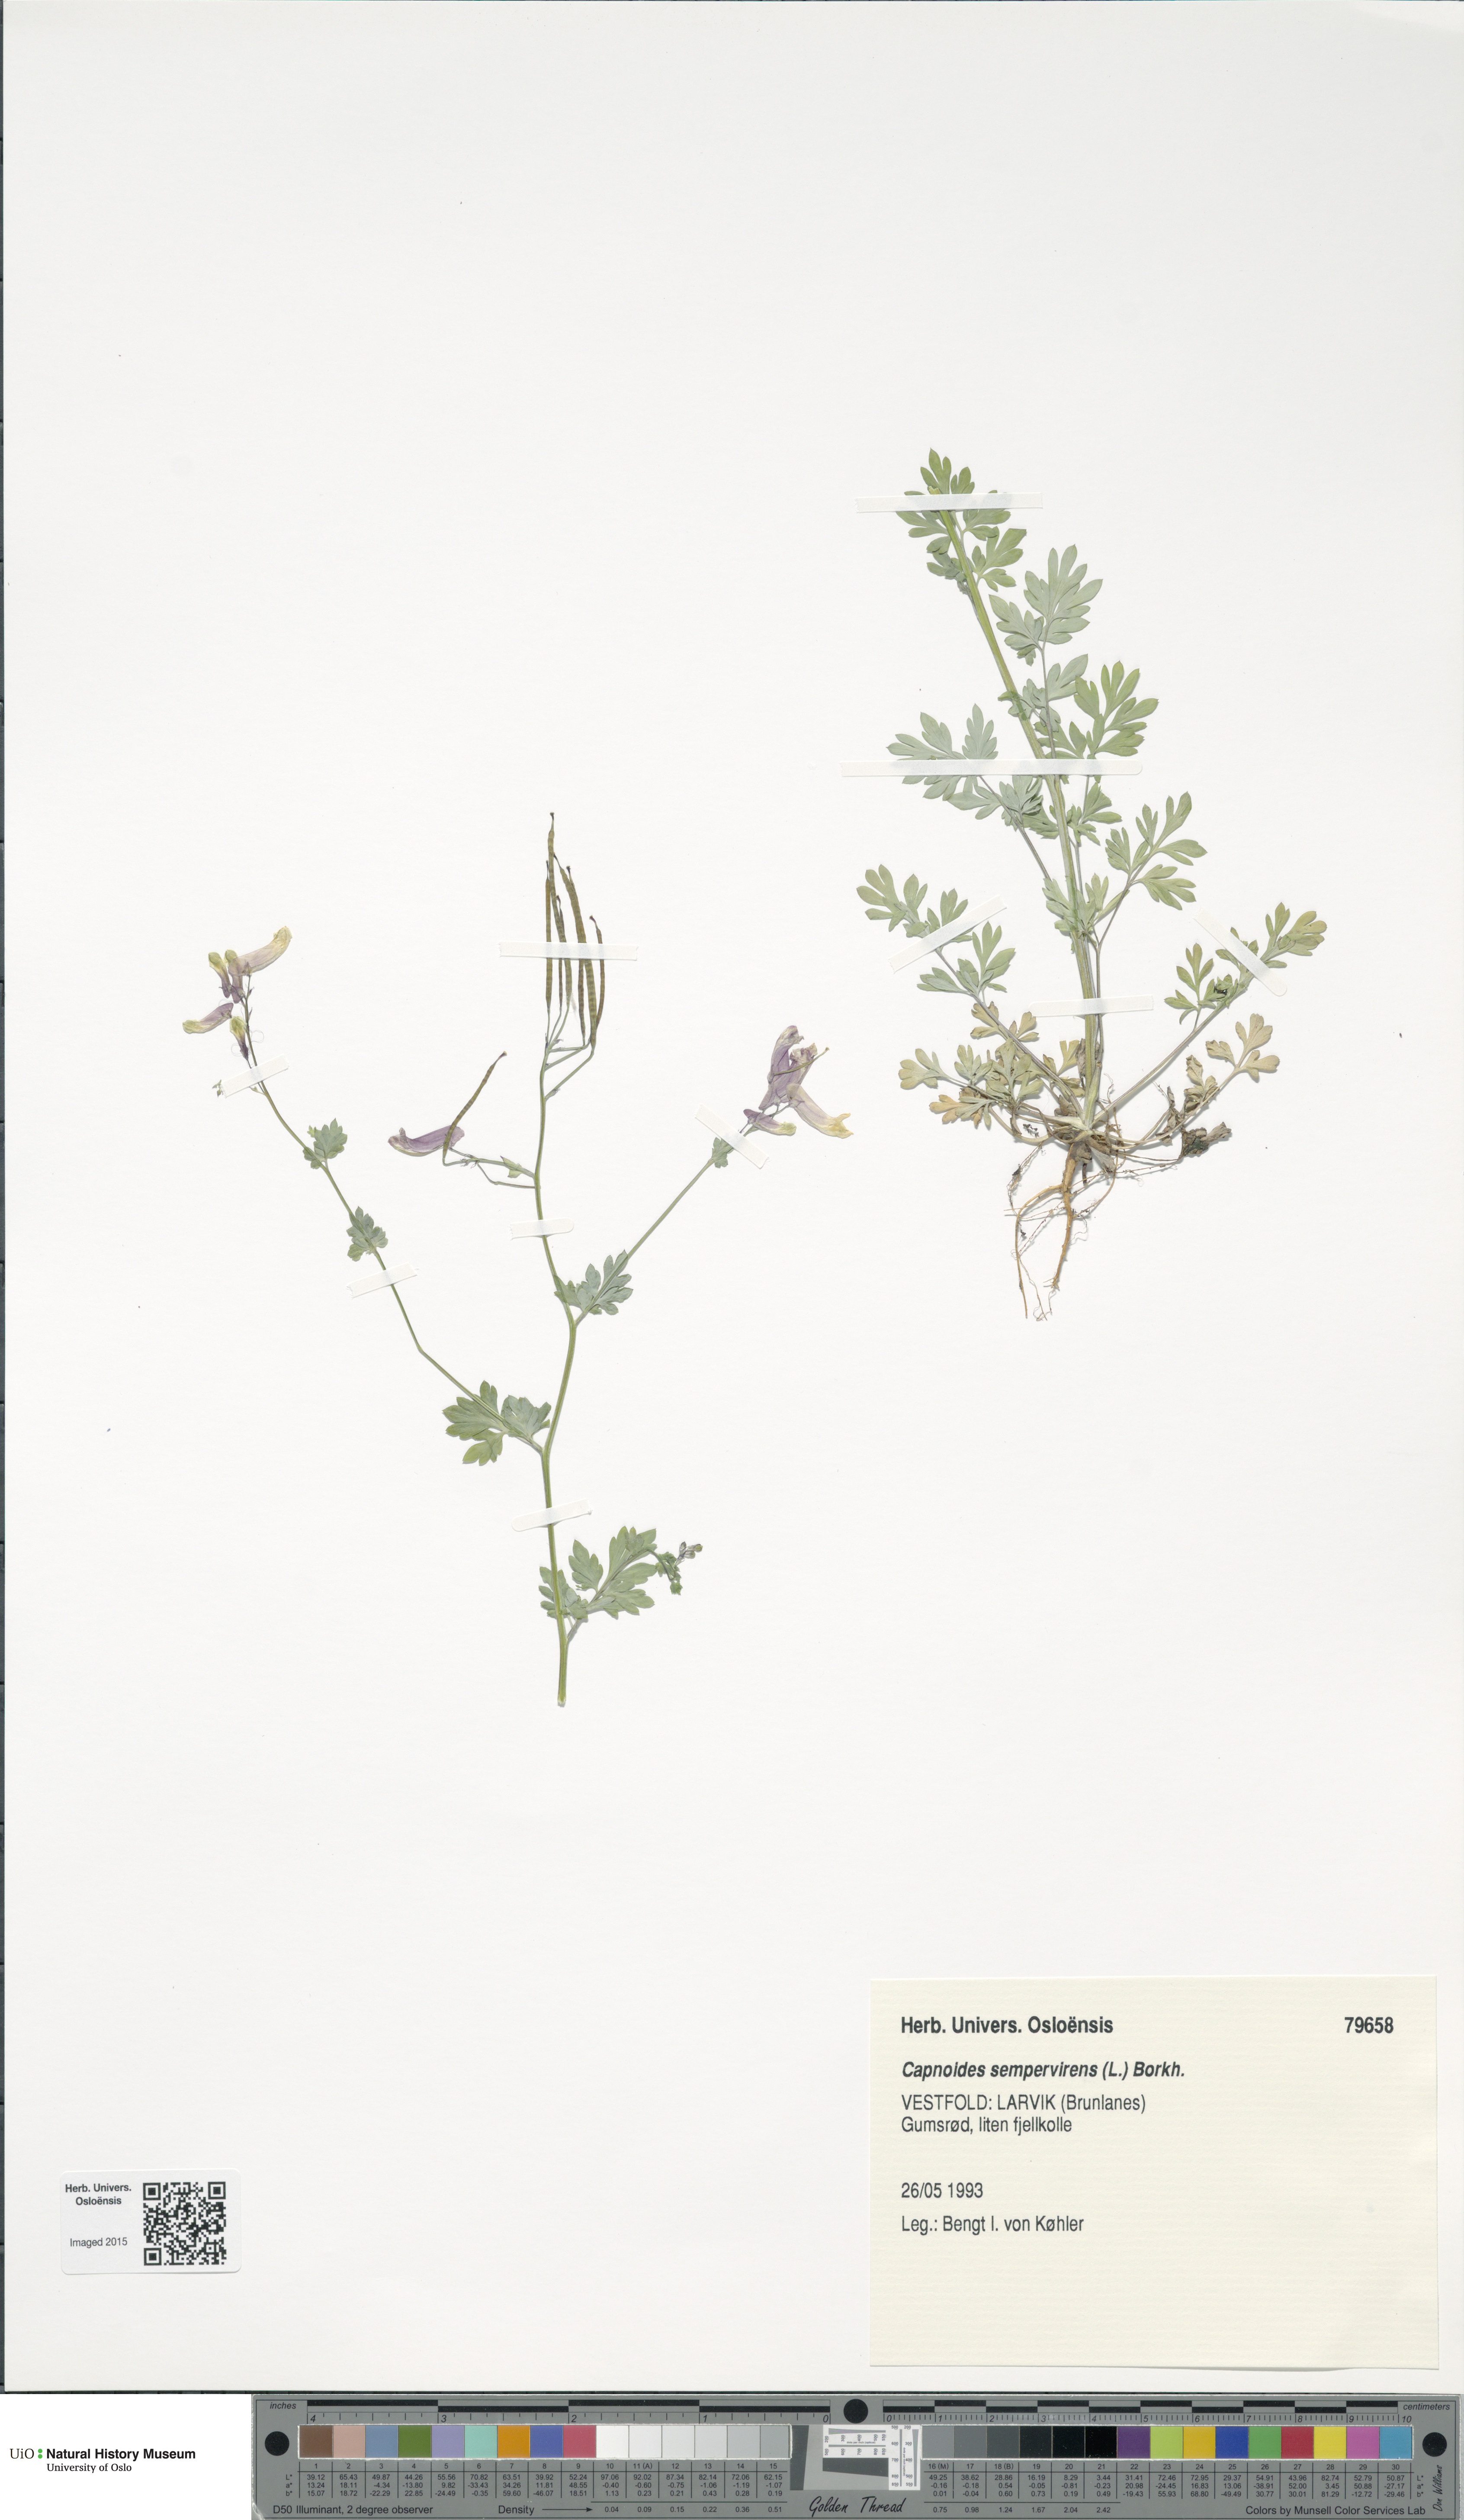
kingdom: Plantae
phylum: Tracheophyta
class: Magnoliopsida
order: Ranunculales
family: Papaveraceae
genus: Capnoides
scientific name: Capnoides sempervirens
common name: Rock harlequin
